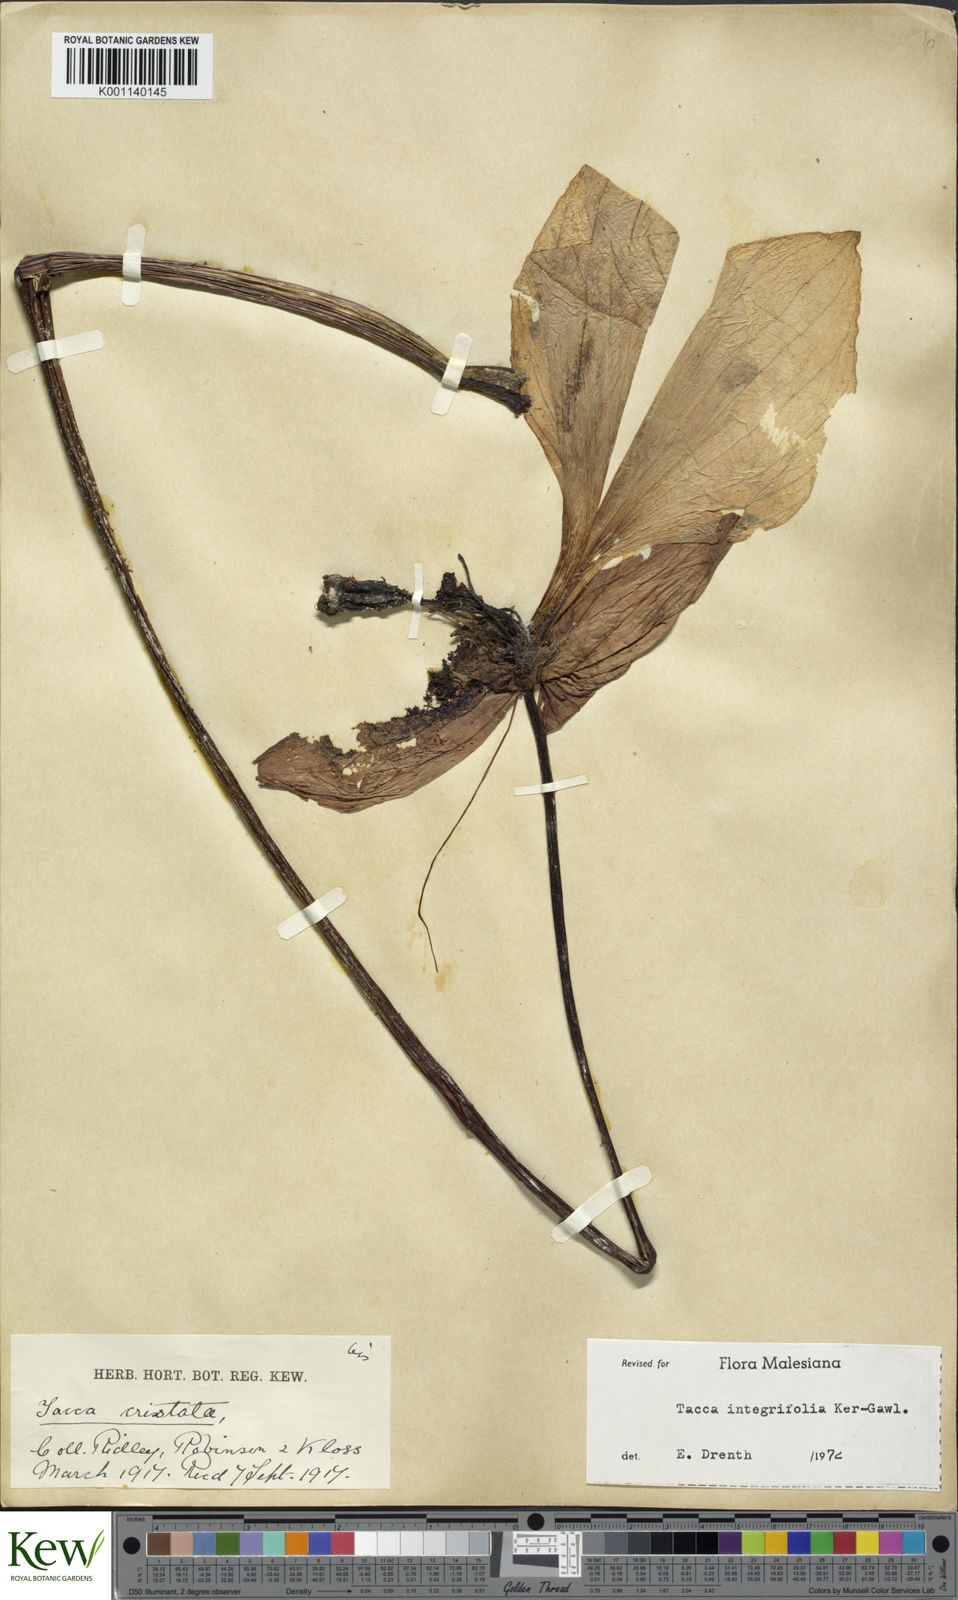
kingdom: Plantae
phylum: Tracheophyta
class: Liliopsida
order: Dioscoreales
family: Dioscoreaceae
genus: Tacca
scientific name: Tacca integrifolia
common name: Batplant
